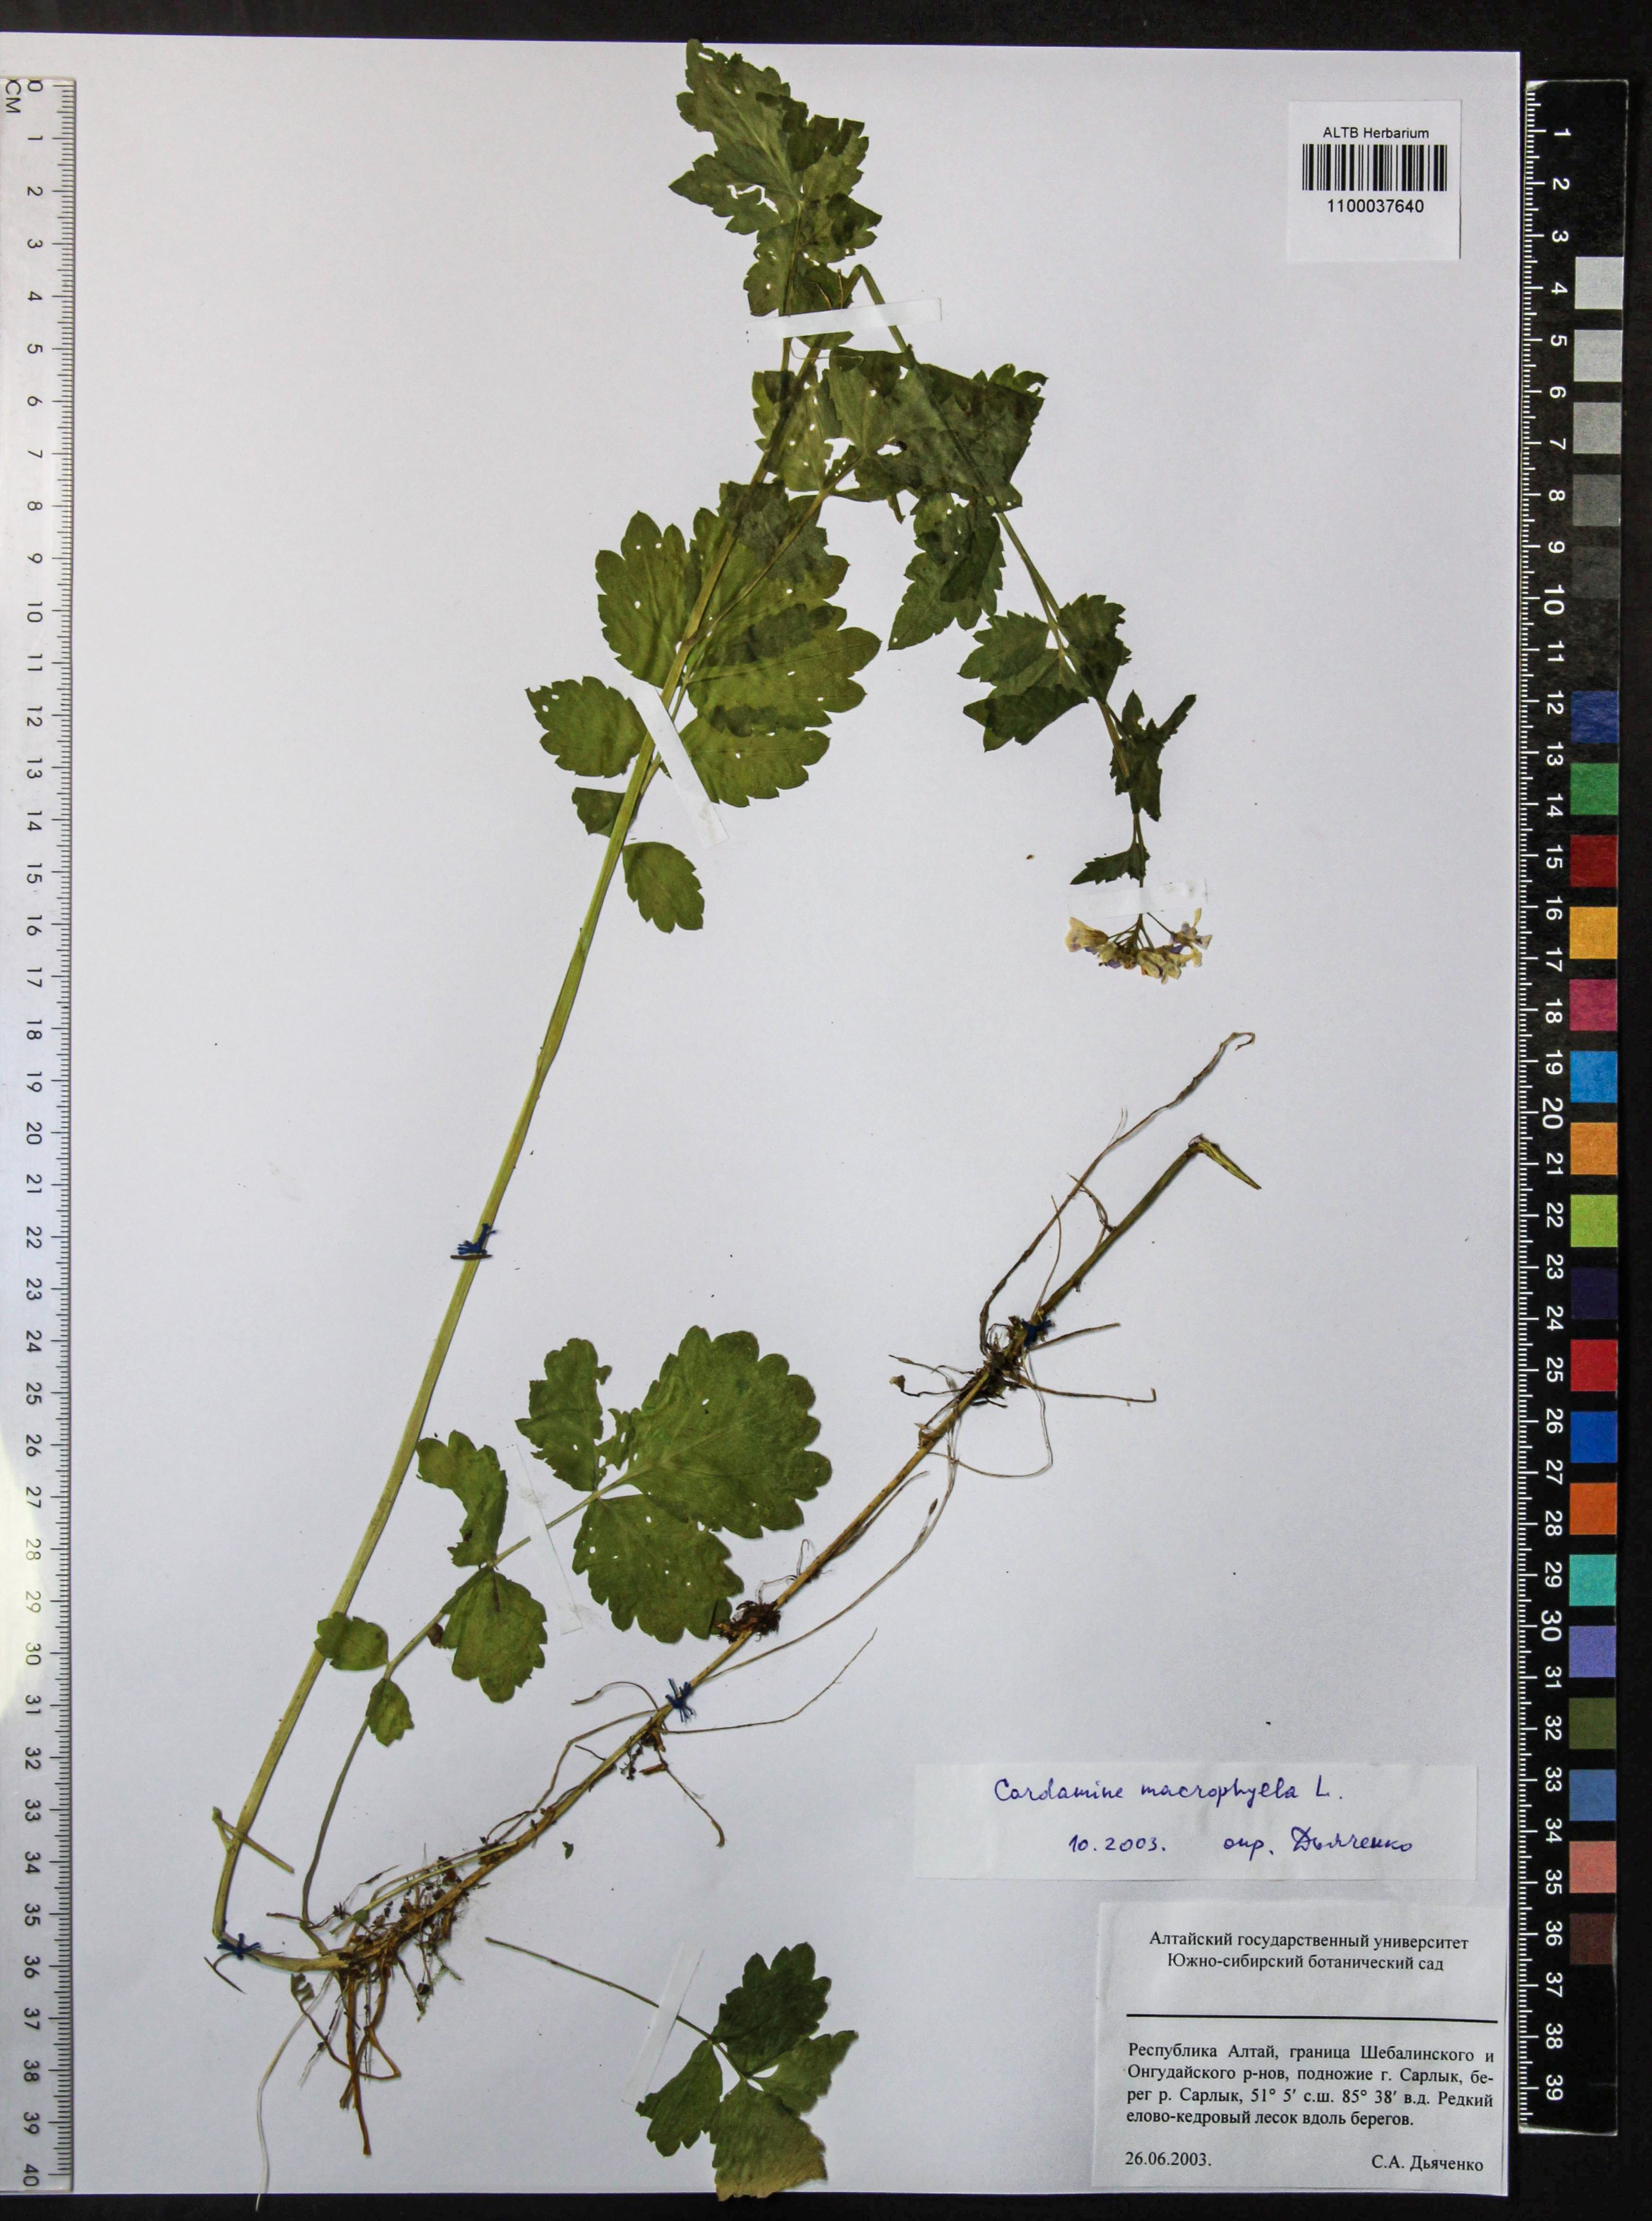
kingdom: Plantae
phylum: Tracheophyta
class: Magnoliopsida
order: Brassicales
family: Brassicaceae
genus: Cardamine
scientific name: Cardamine macrophylla
